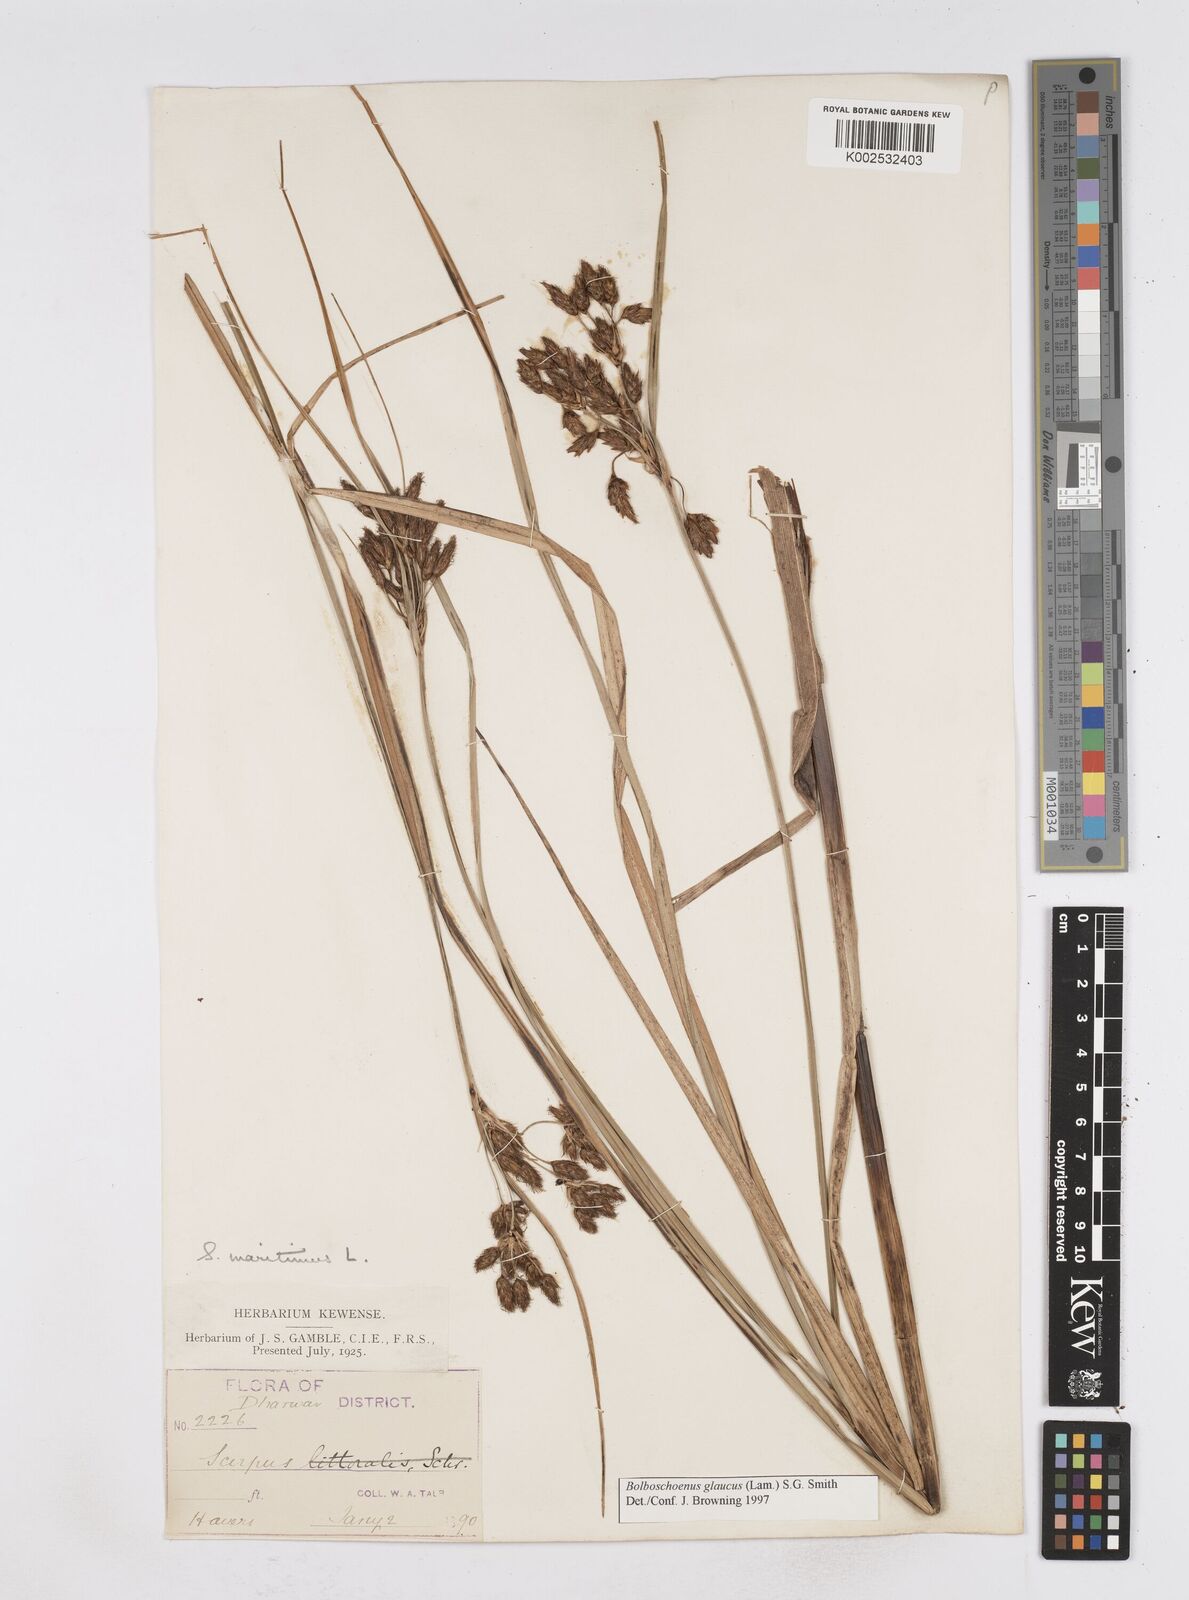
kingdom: Plantae
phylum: Tracheophyta
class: Liliopsida
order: Poales
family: Cyperaceae
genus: Bolboschoenus
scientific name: Bolboschoenus maritimus
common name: Sea club-rush
